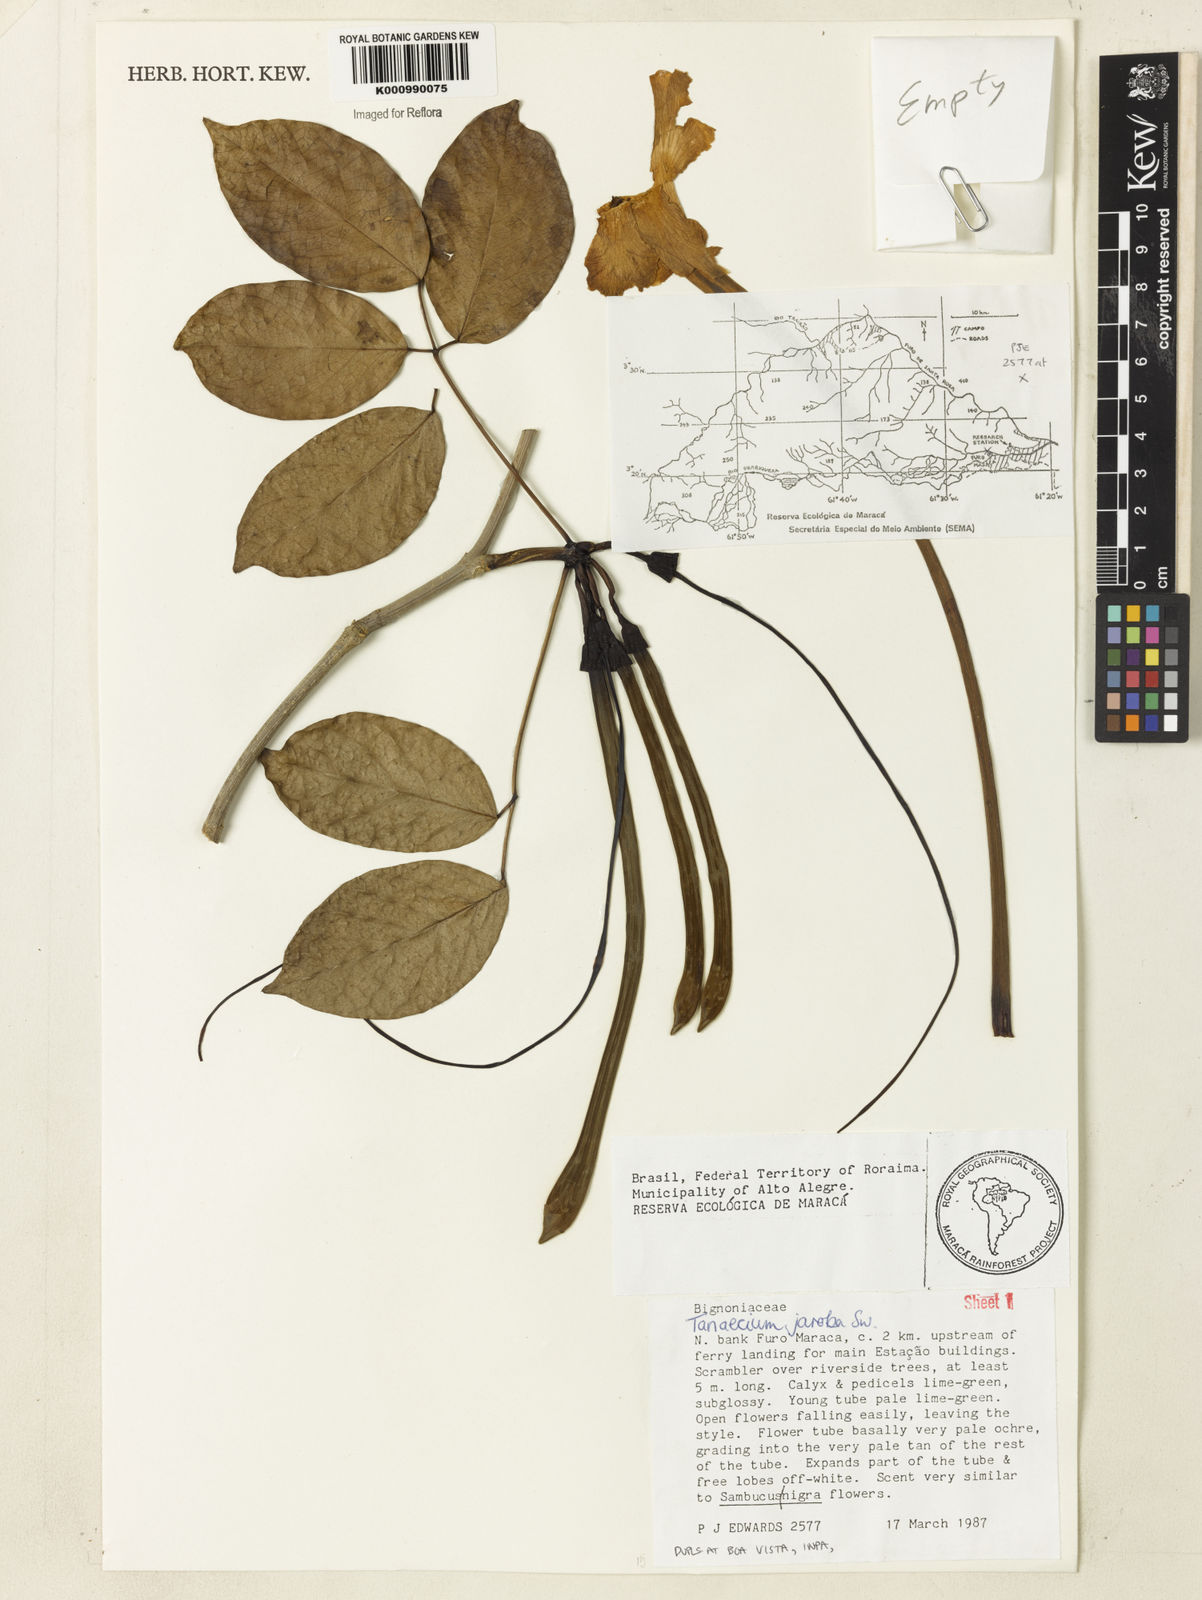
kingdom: Plantae
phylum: Tracheophyta
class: Magnoliopsida
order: Lamiales
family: Bignoniaceae
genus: Tanaecium
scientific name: Tanaecium jaroba
